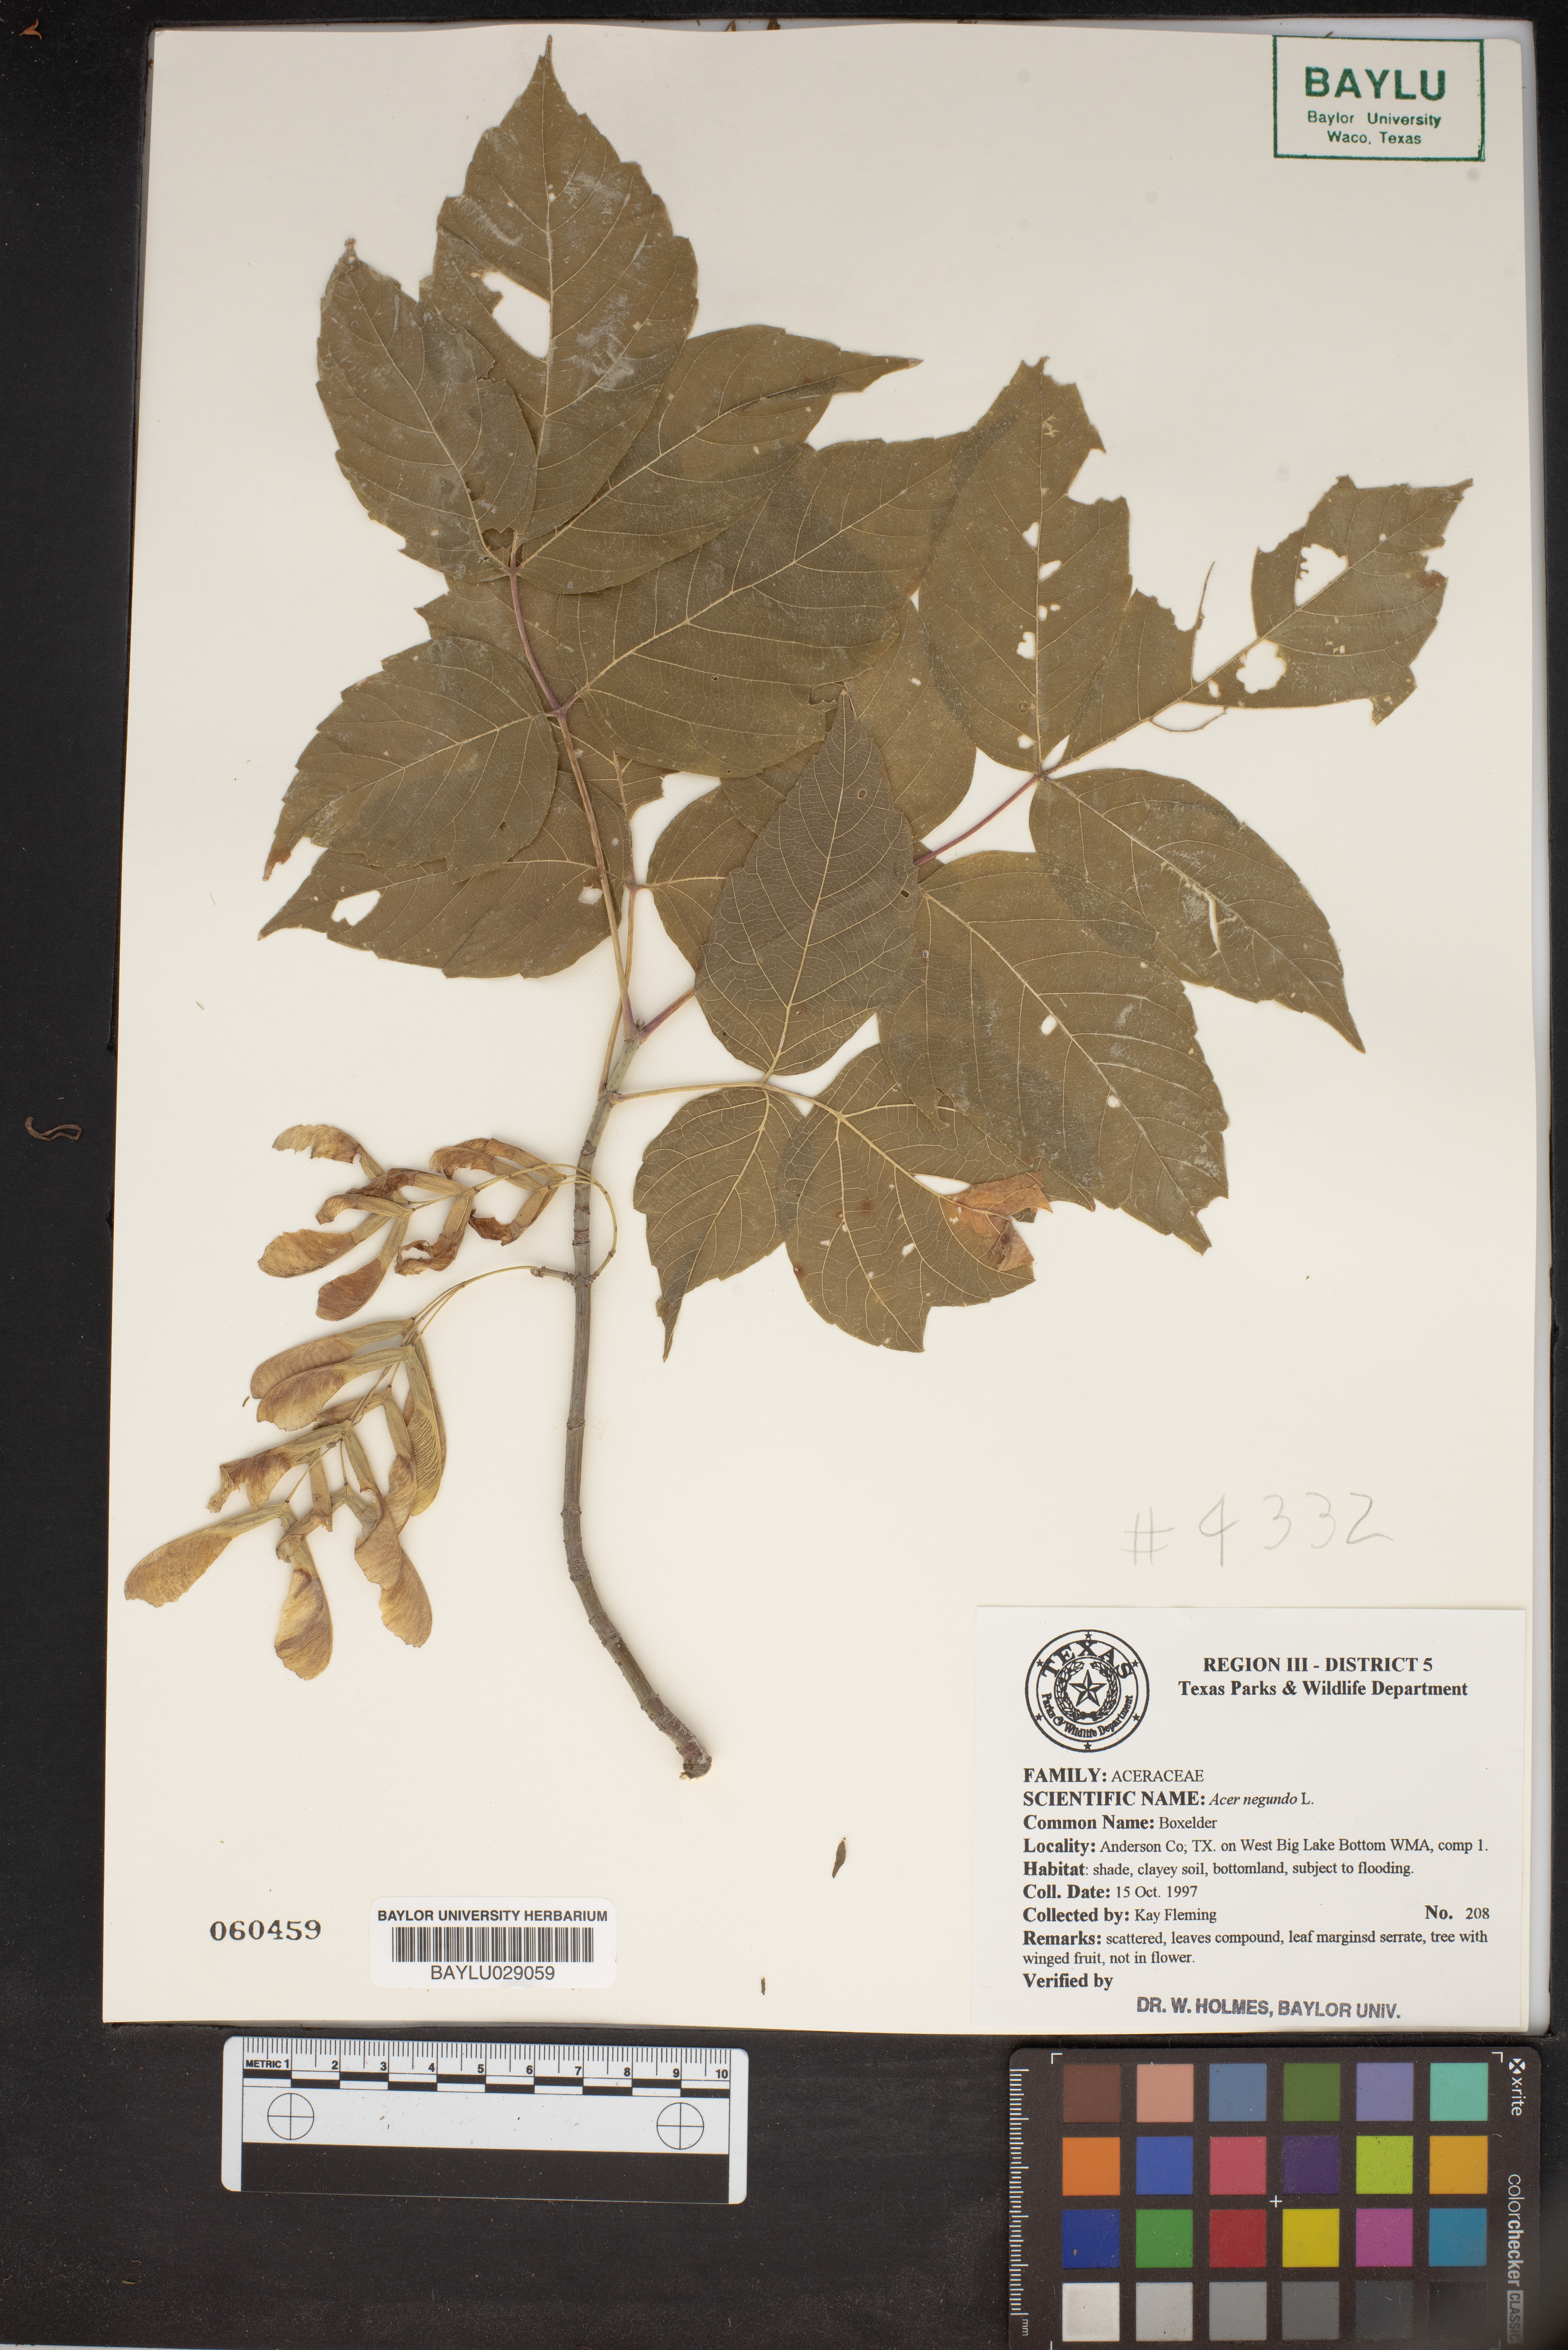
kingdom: Plantae
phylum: Tracheophyta
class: Magnoliopsida
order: Sapindales
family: Sapindaceae
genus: Acer
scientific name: Acer negundo
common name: Ashleaf maple
